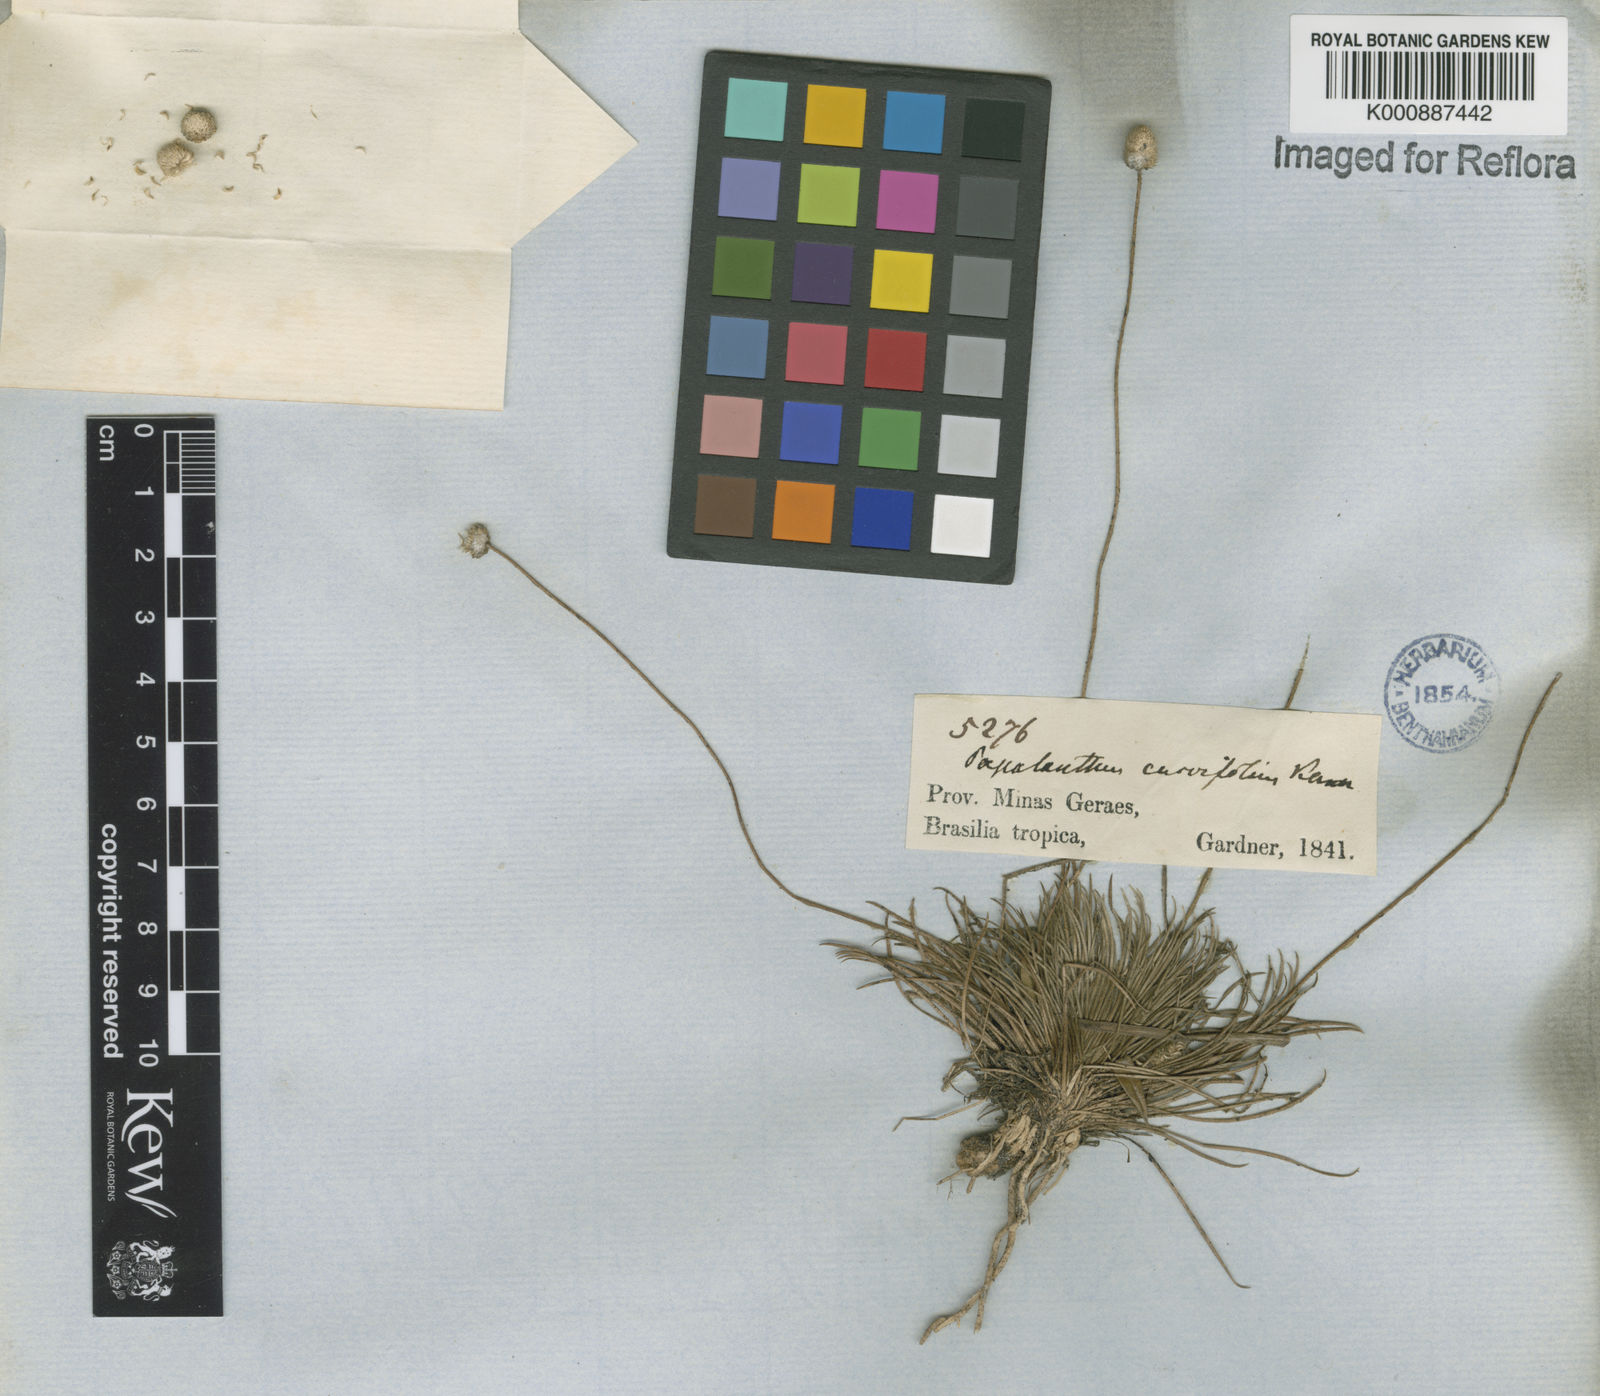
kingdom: Plantae
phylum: Tracheophyta
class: Liliopsida
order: Poales
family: Eriocaulaceae
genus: Leiothrix
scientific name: Leiothrix curvifolia
